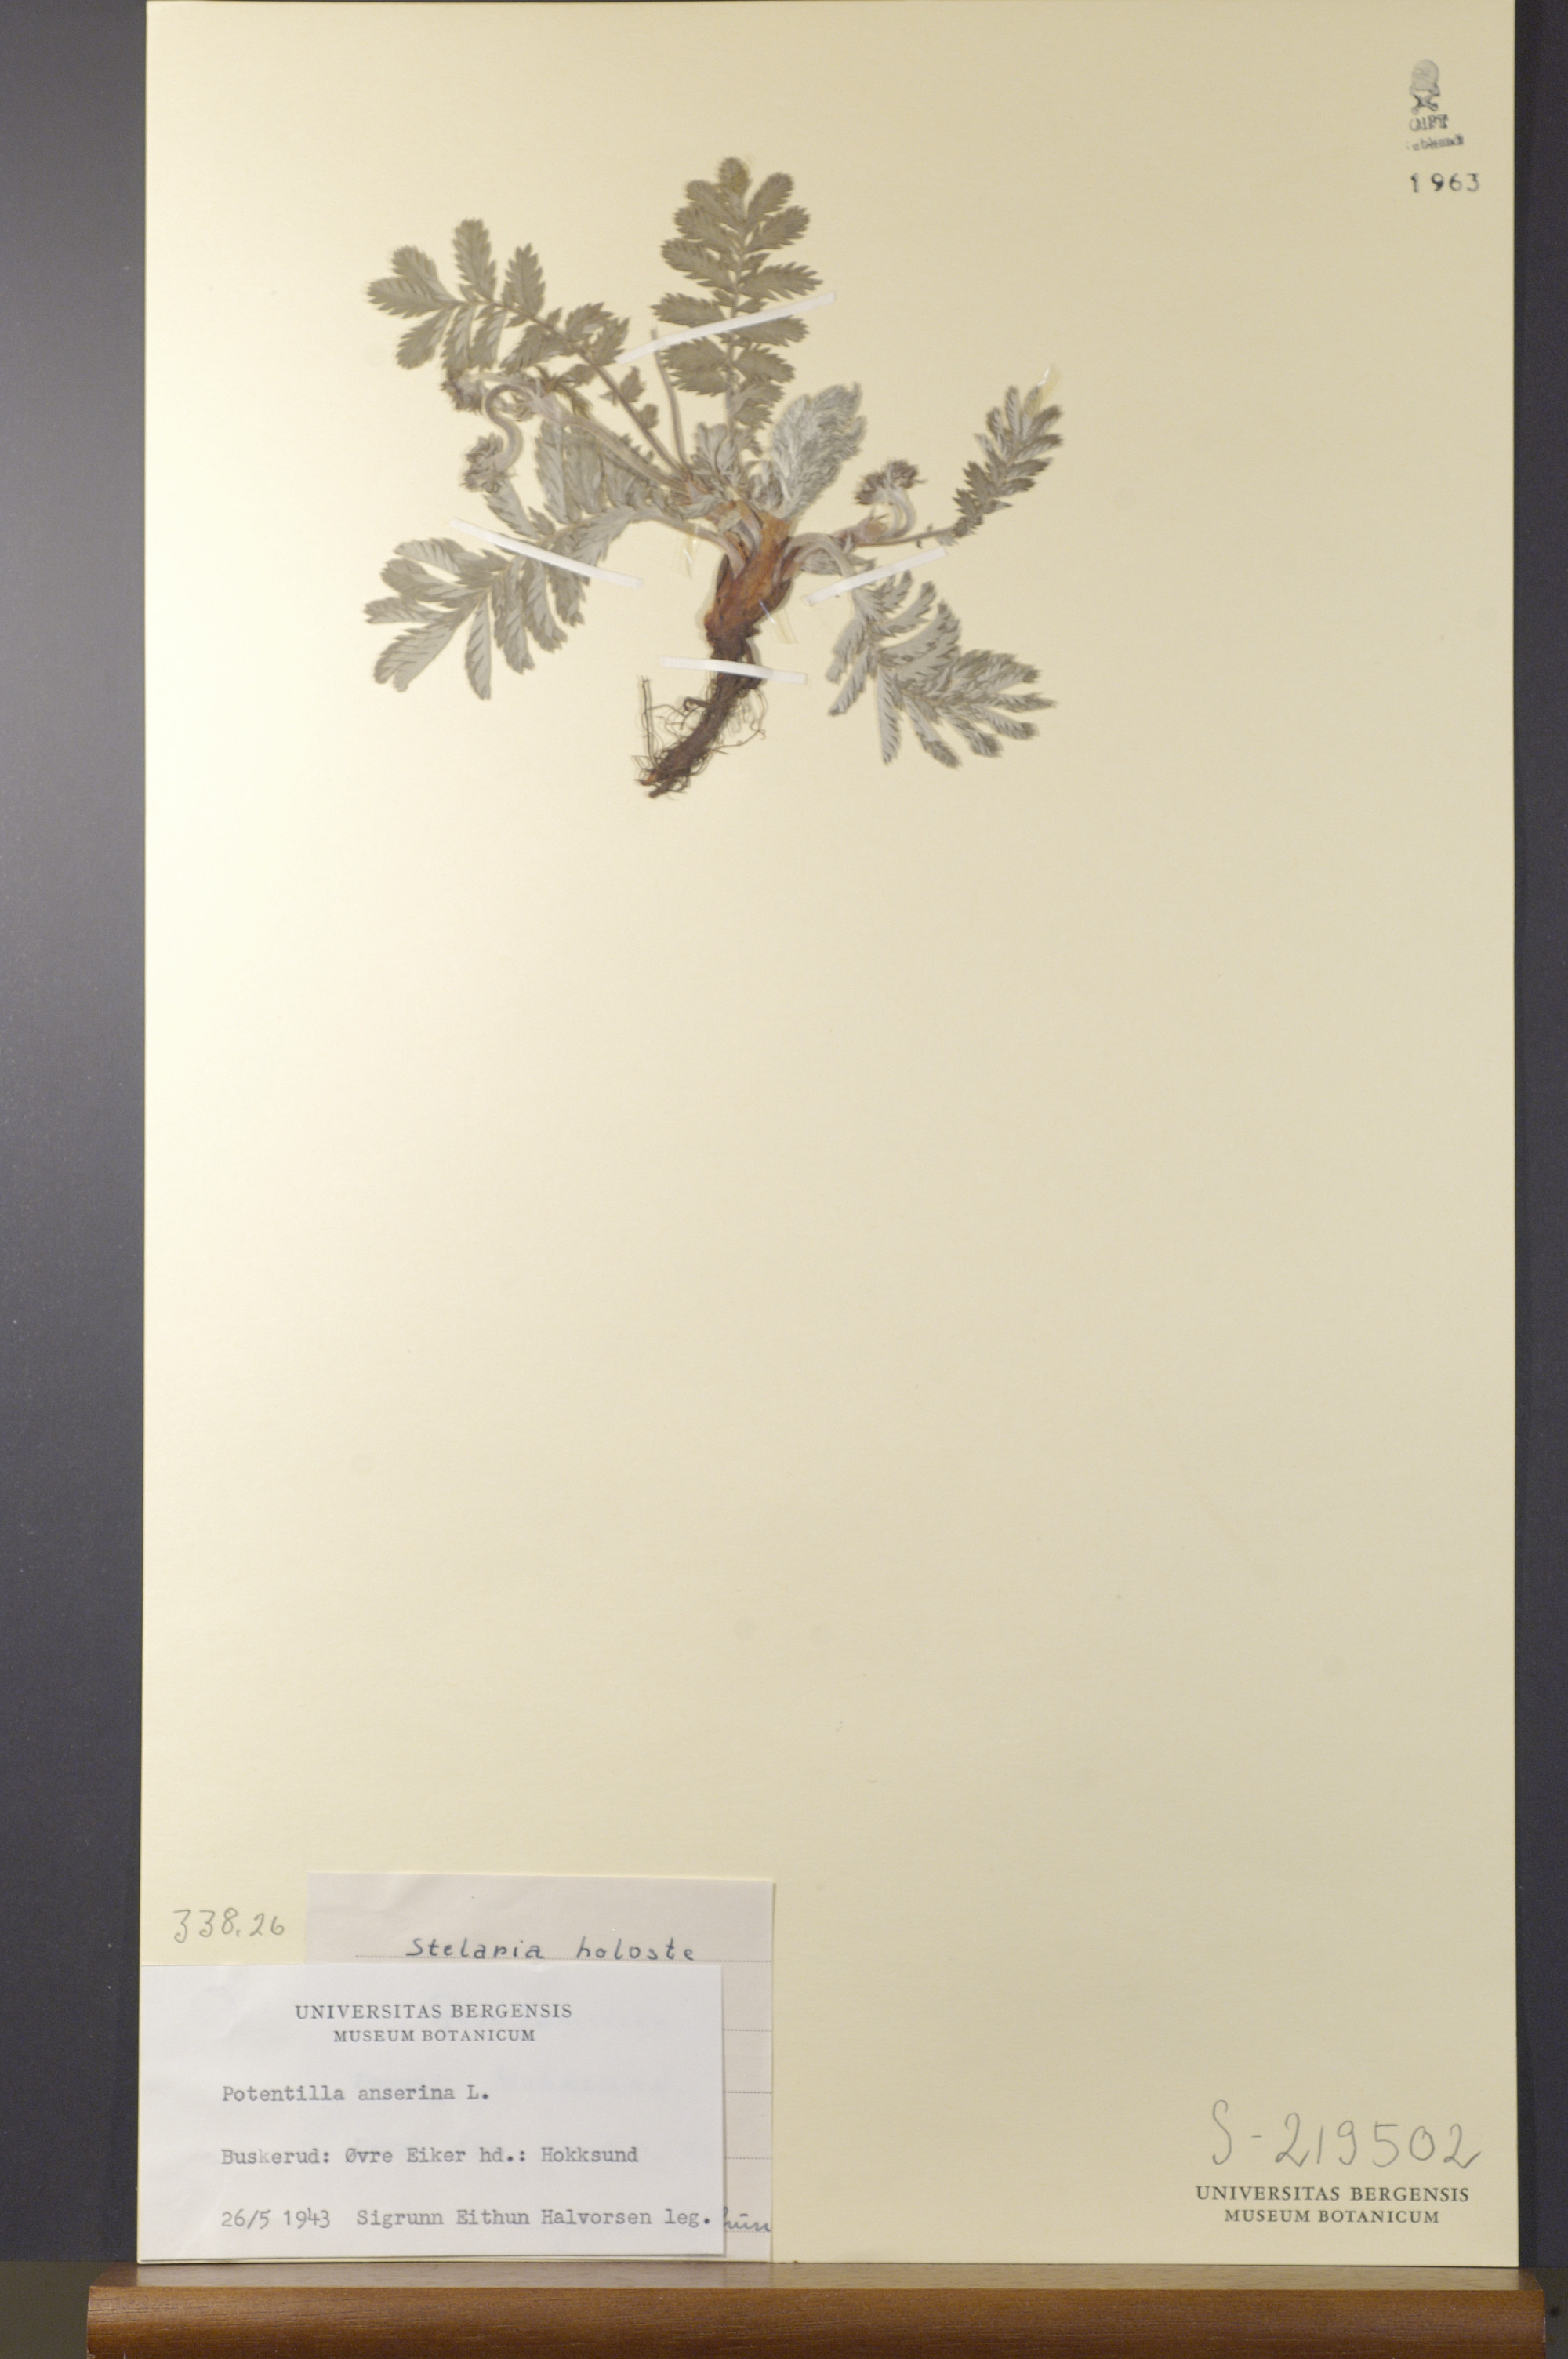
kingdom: Plantae
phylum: Tracheophyta
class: Magnoliopsida
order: Rosales
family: Rosaceae
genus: Argentina
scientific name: Argentina anserina
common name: Common silverweed
